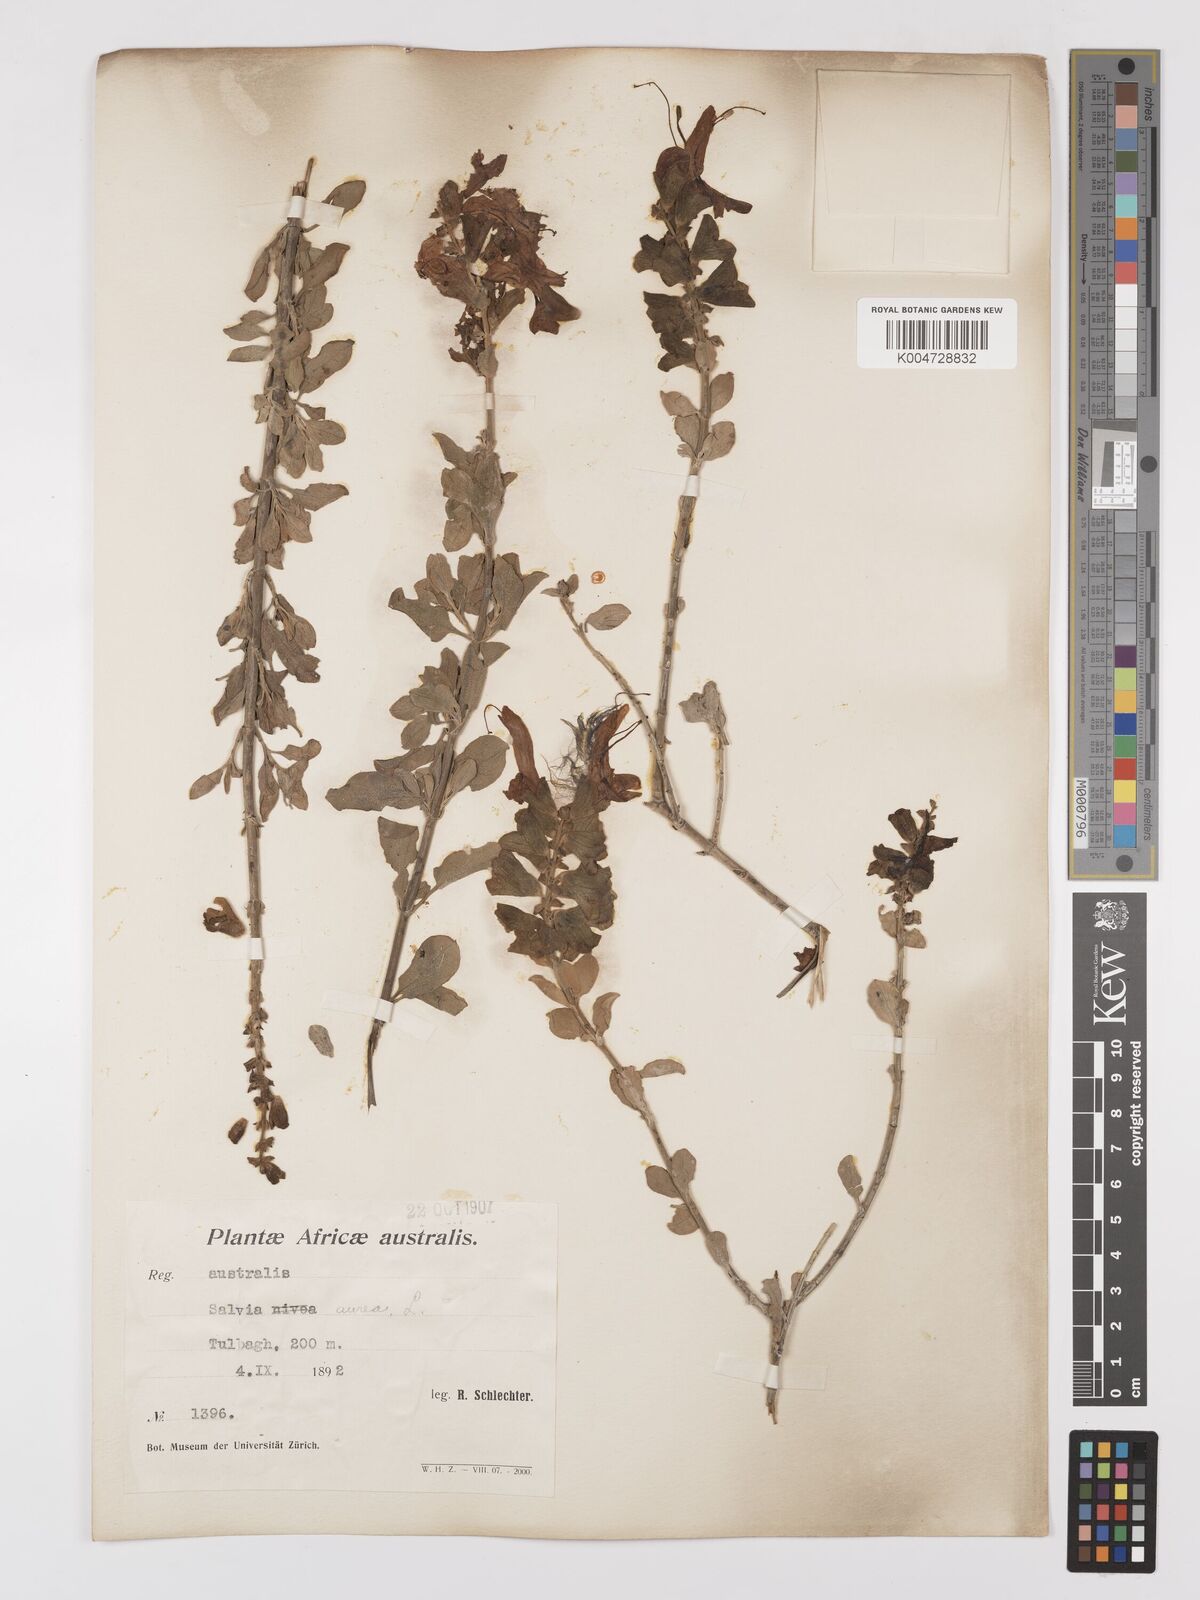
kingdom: Plantae
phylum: Tracheophyta
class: Magnoliopsida
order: Lamiales
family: Lamiaceae
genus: Salvia
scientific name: Salvia aurea
